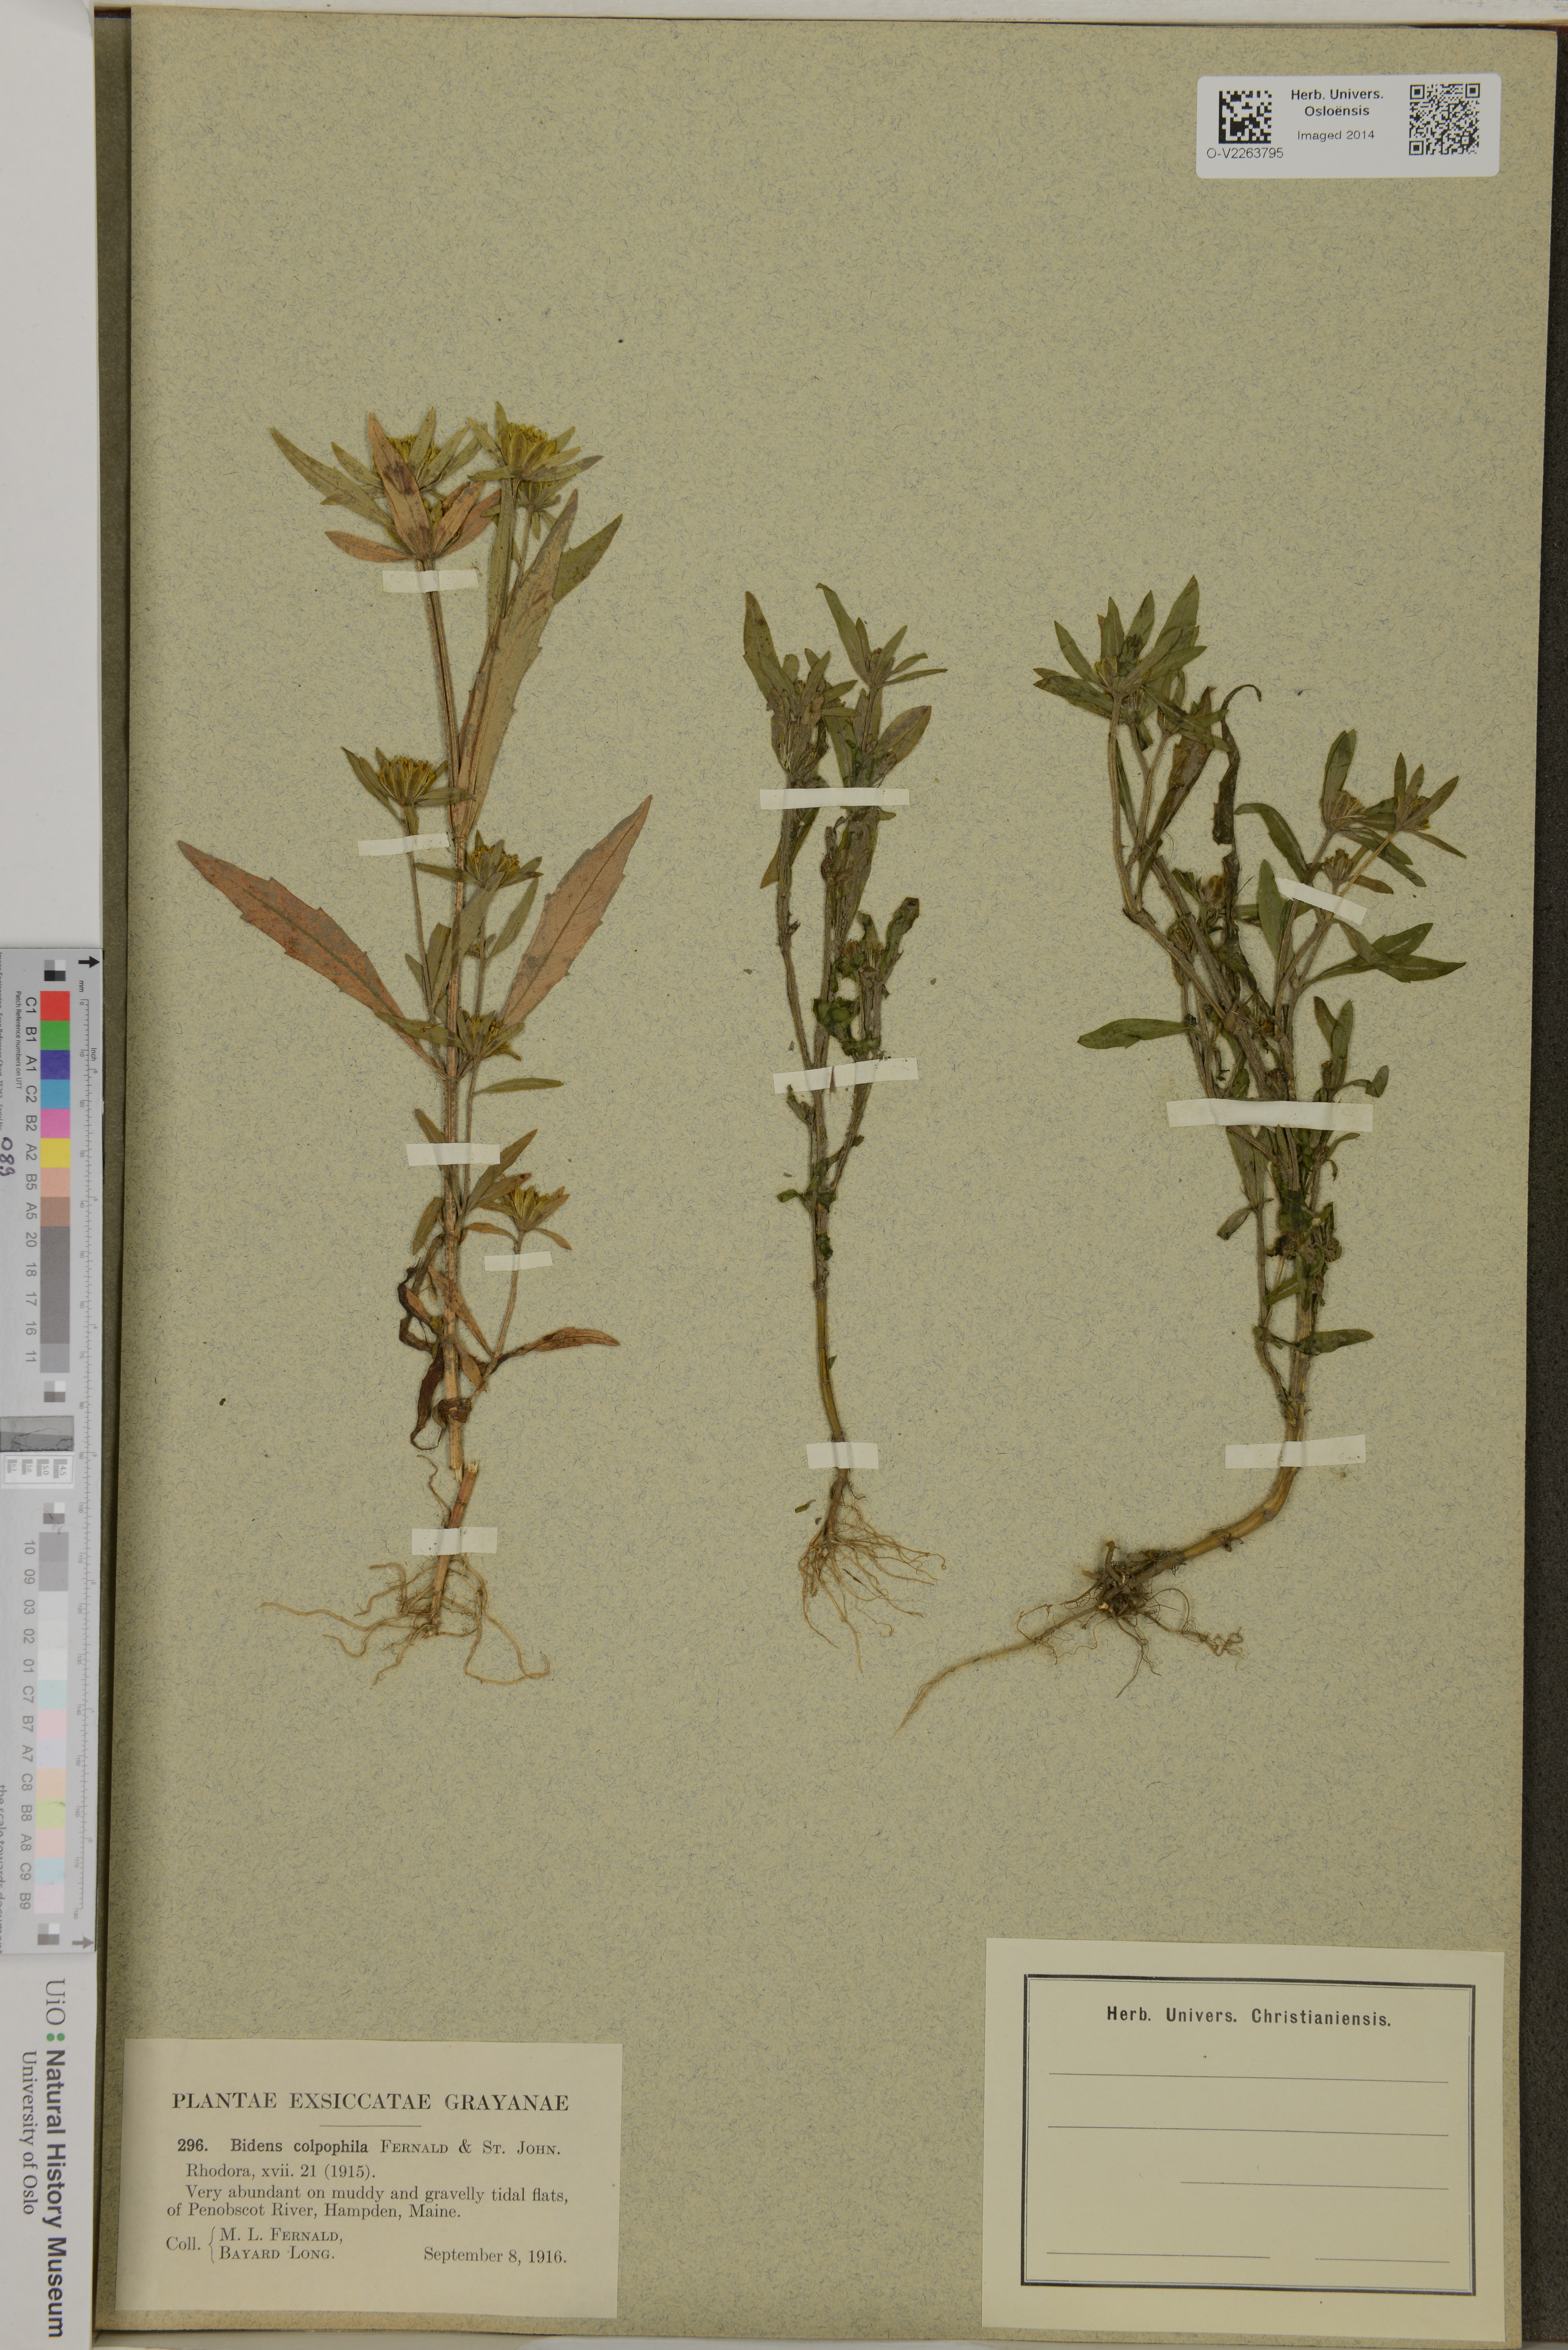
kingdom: Plantae
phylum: Tracheophyta
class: Magnoliopsida
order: Asterales
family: Asteraceae
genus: Bidens
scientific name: Bidens hyperborea
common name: Coastal beggarticks
